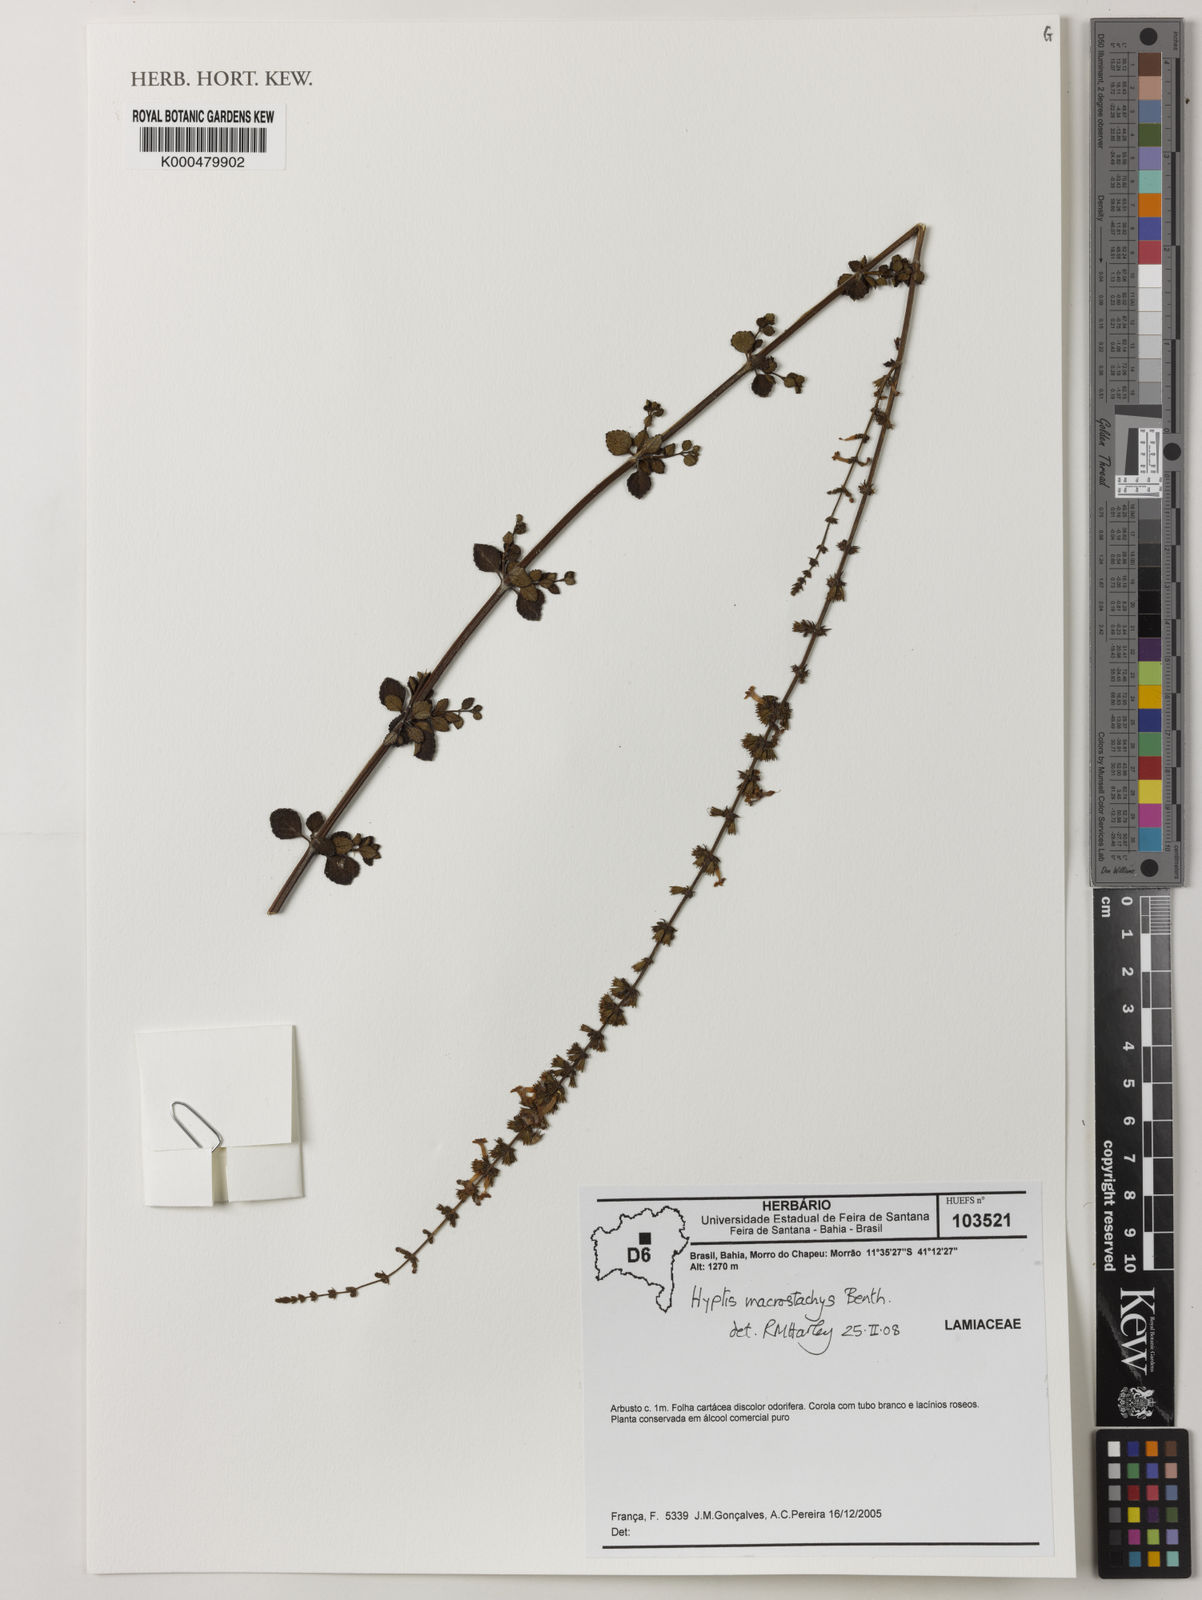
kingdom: Plantae
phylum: Tracheophyta
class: Magnoliopsida
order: Lamiales
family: Lamiaceae
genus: Leptohyptis
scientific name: Leptohyptis macrostachys
